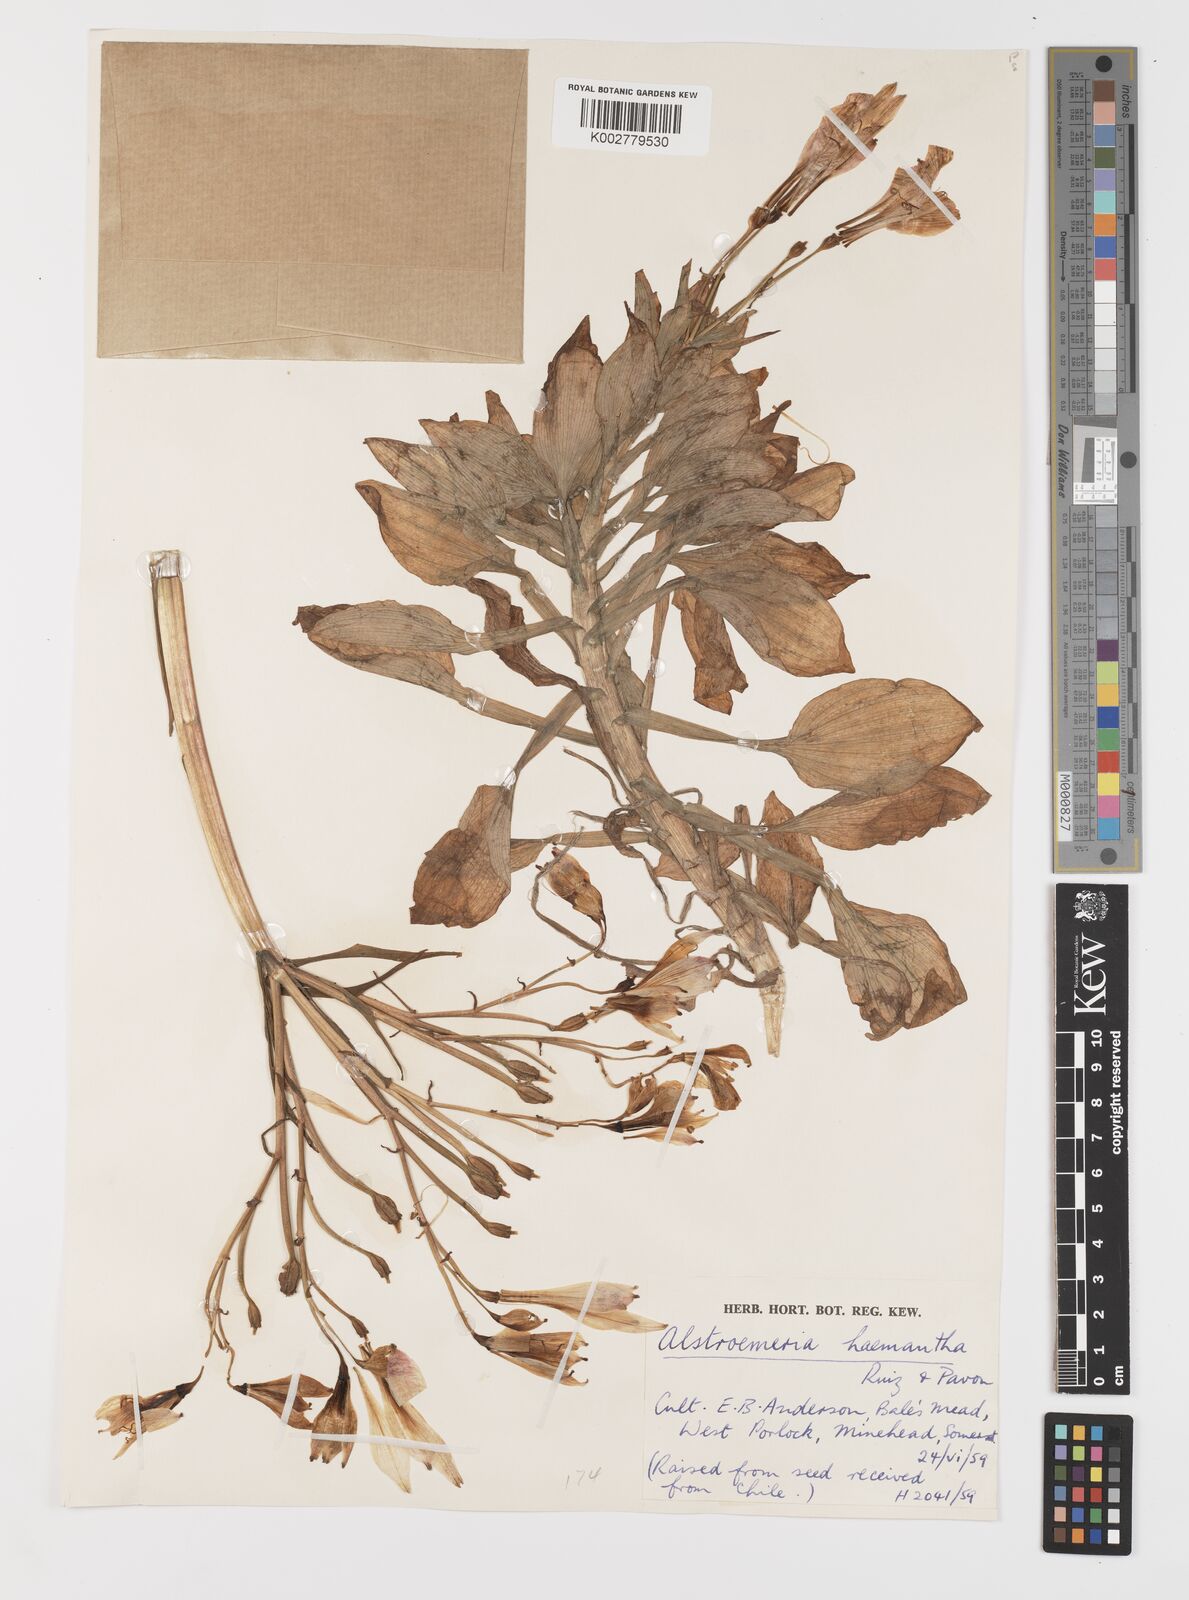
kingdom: Plantae
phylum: Tracheophyta
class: Liliopsida
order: Liliales
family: Alstroemeriaceae
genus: Alstroemeria
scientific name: Alstroemeria ligtu
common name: St. martin's-flower
